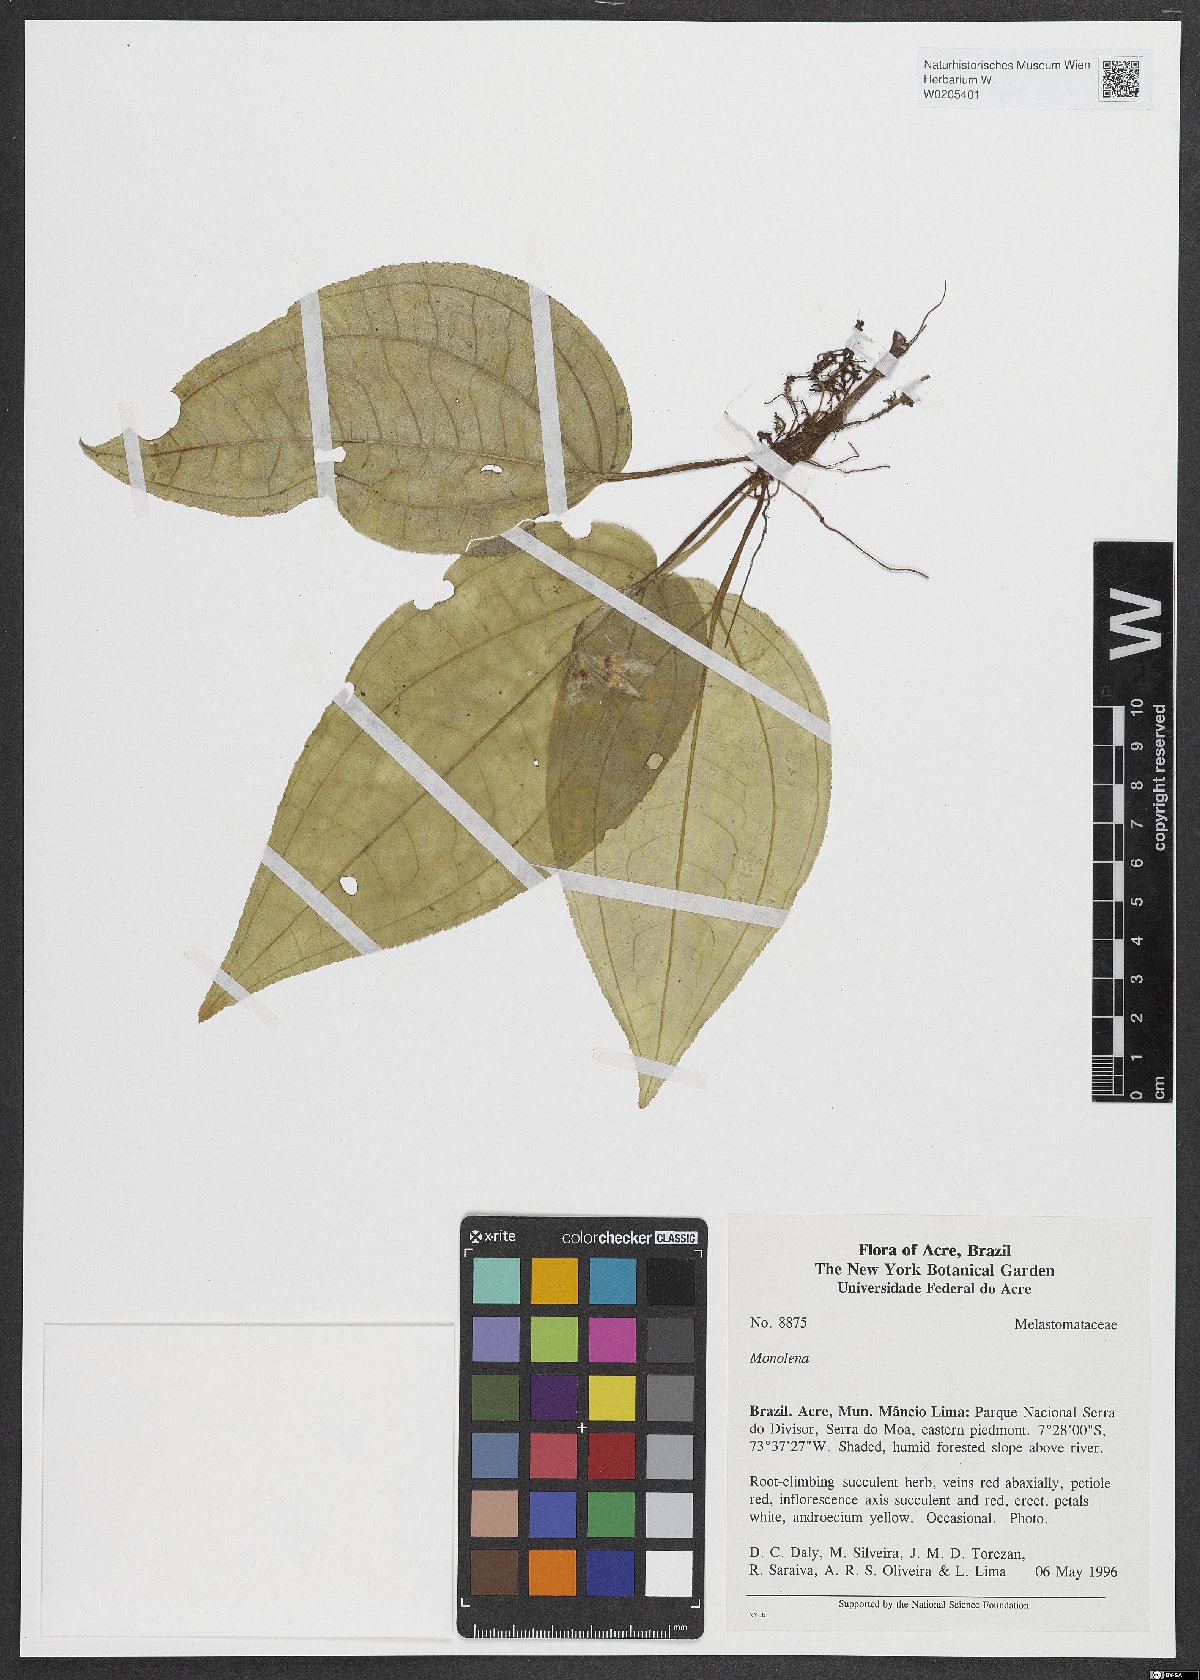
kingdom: Plantae
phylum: Tracheophyta
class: Magnoliopsida
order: Myrtales
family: Melastomataceae
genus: Monolena
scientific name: Monolena
